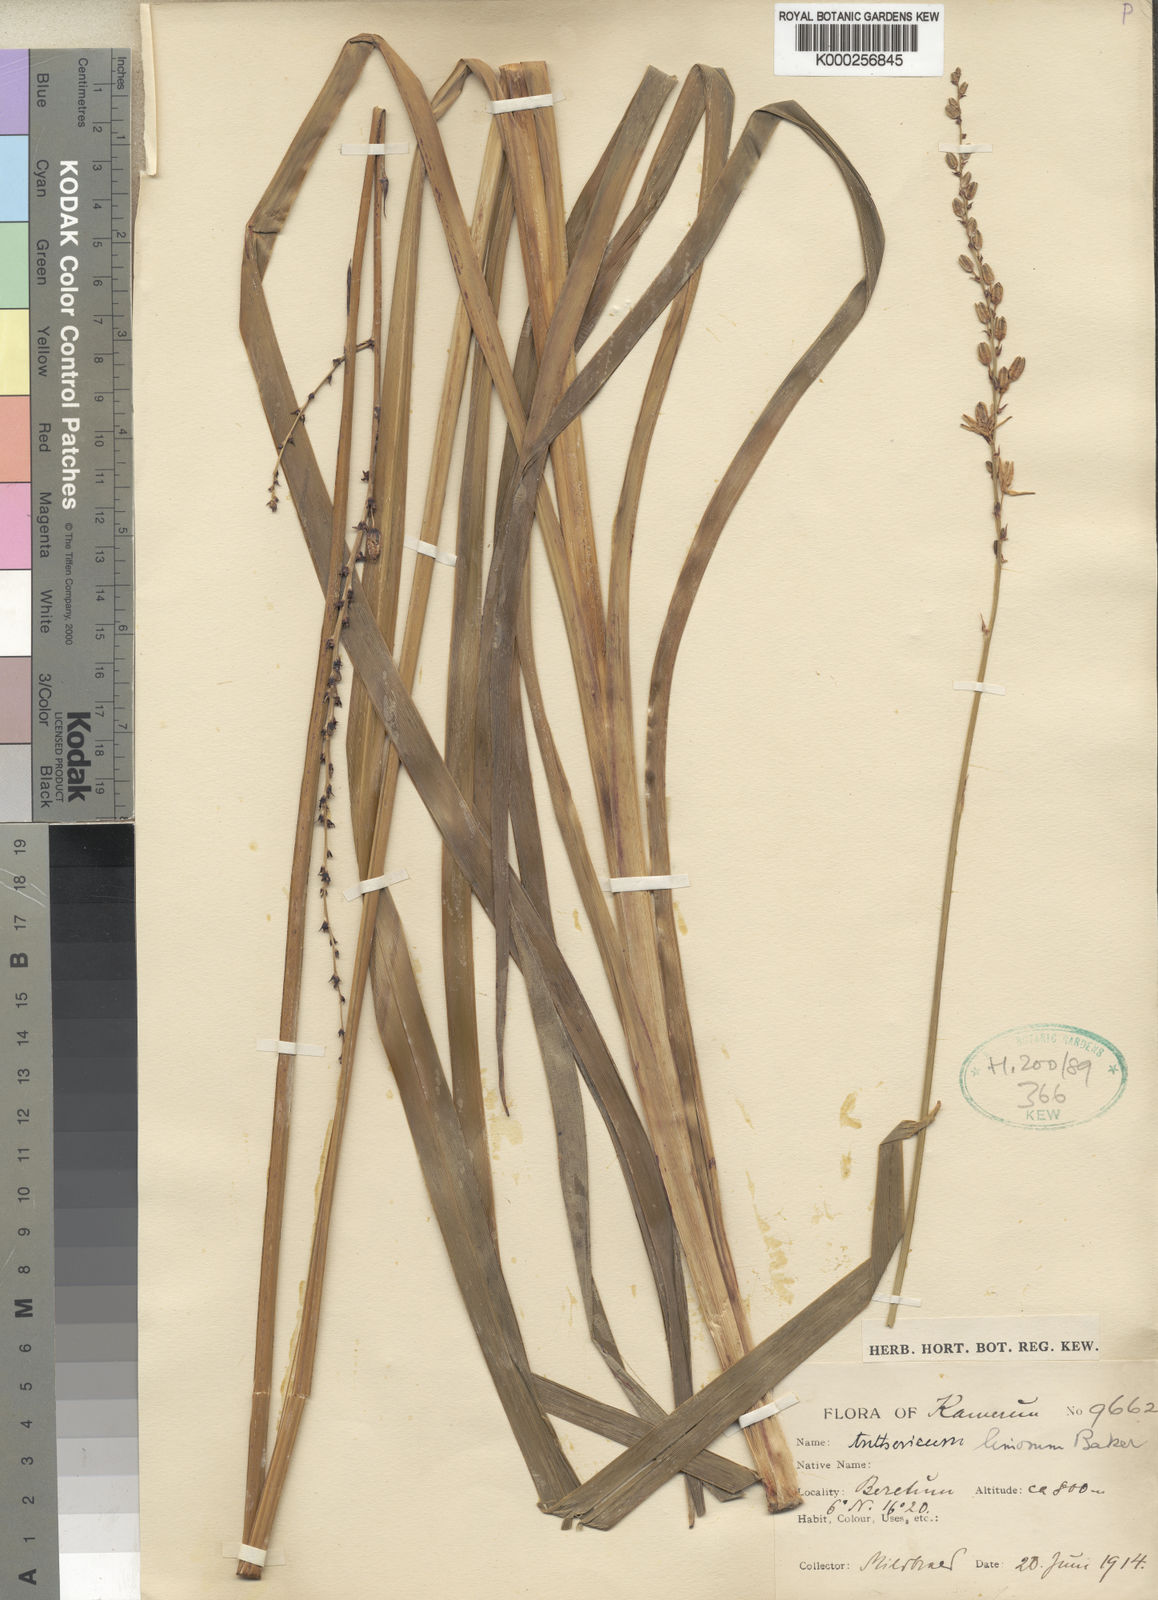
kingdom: Plantae
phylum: Tracheophyta
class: Liliopsida
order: Asparagales
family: Asparagaceae
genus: Chlorophytum
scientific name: Chlorophytum leptoneurum
